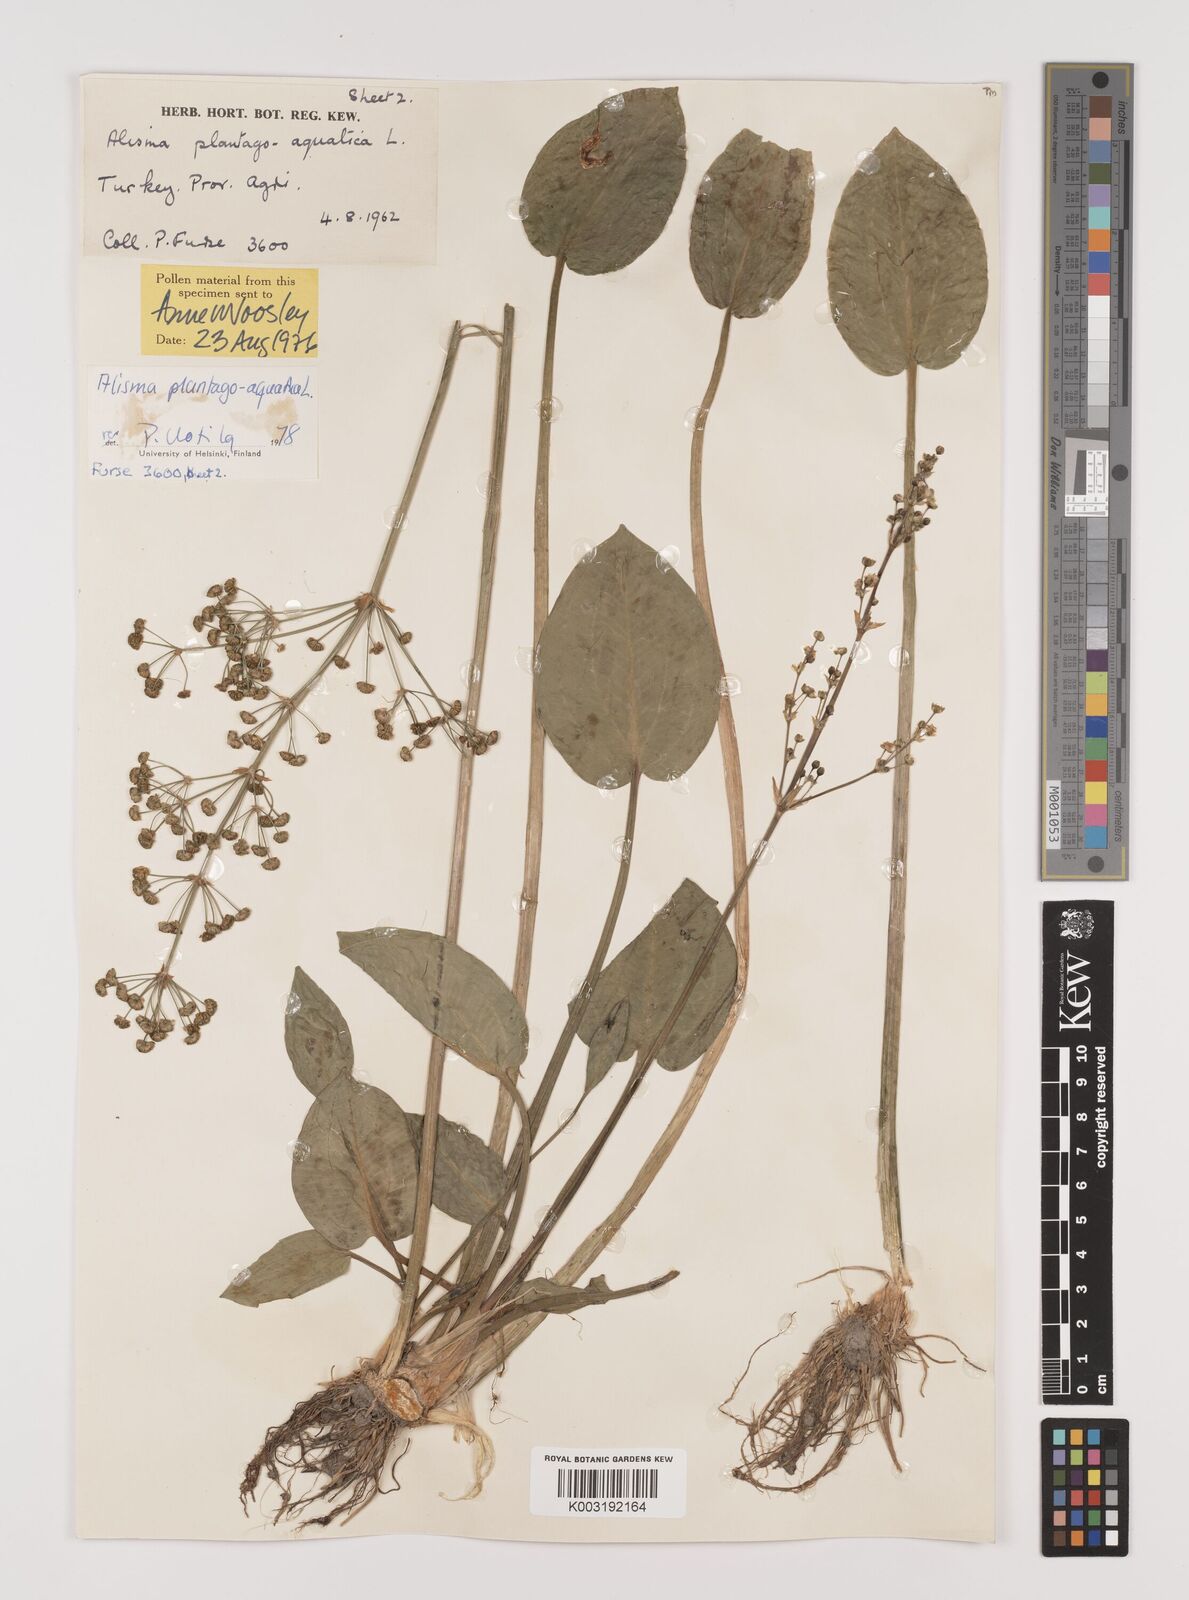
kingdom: Plantae
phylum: Tracheophyta
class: Liliopsida
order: Alismatales
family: Alismataceae
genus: Alisma
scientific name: Alisma plantago-aquatica
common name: Water-plantain
